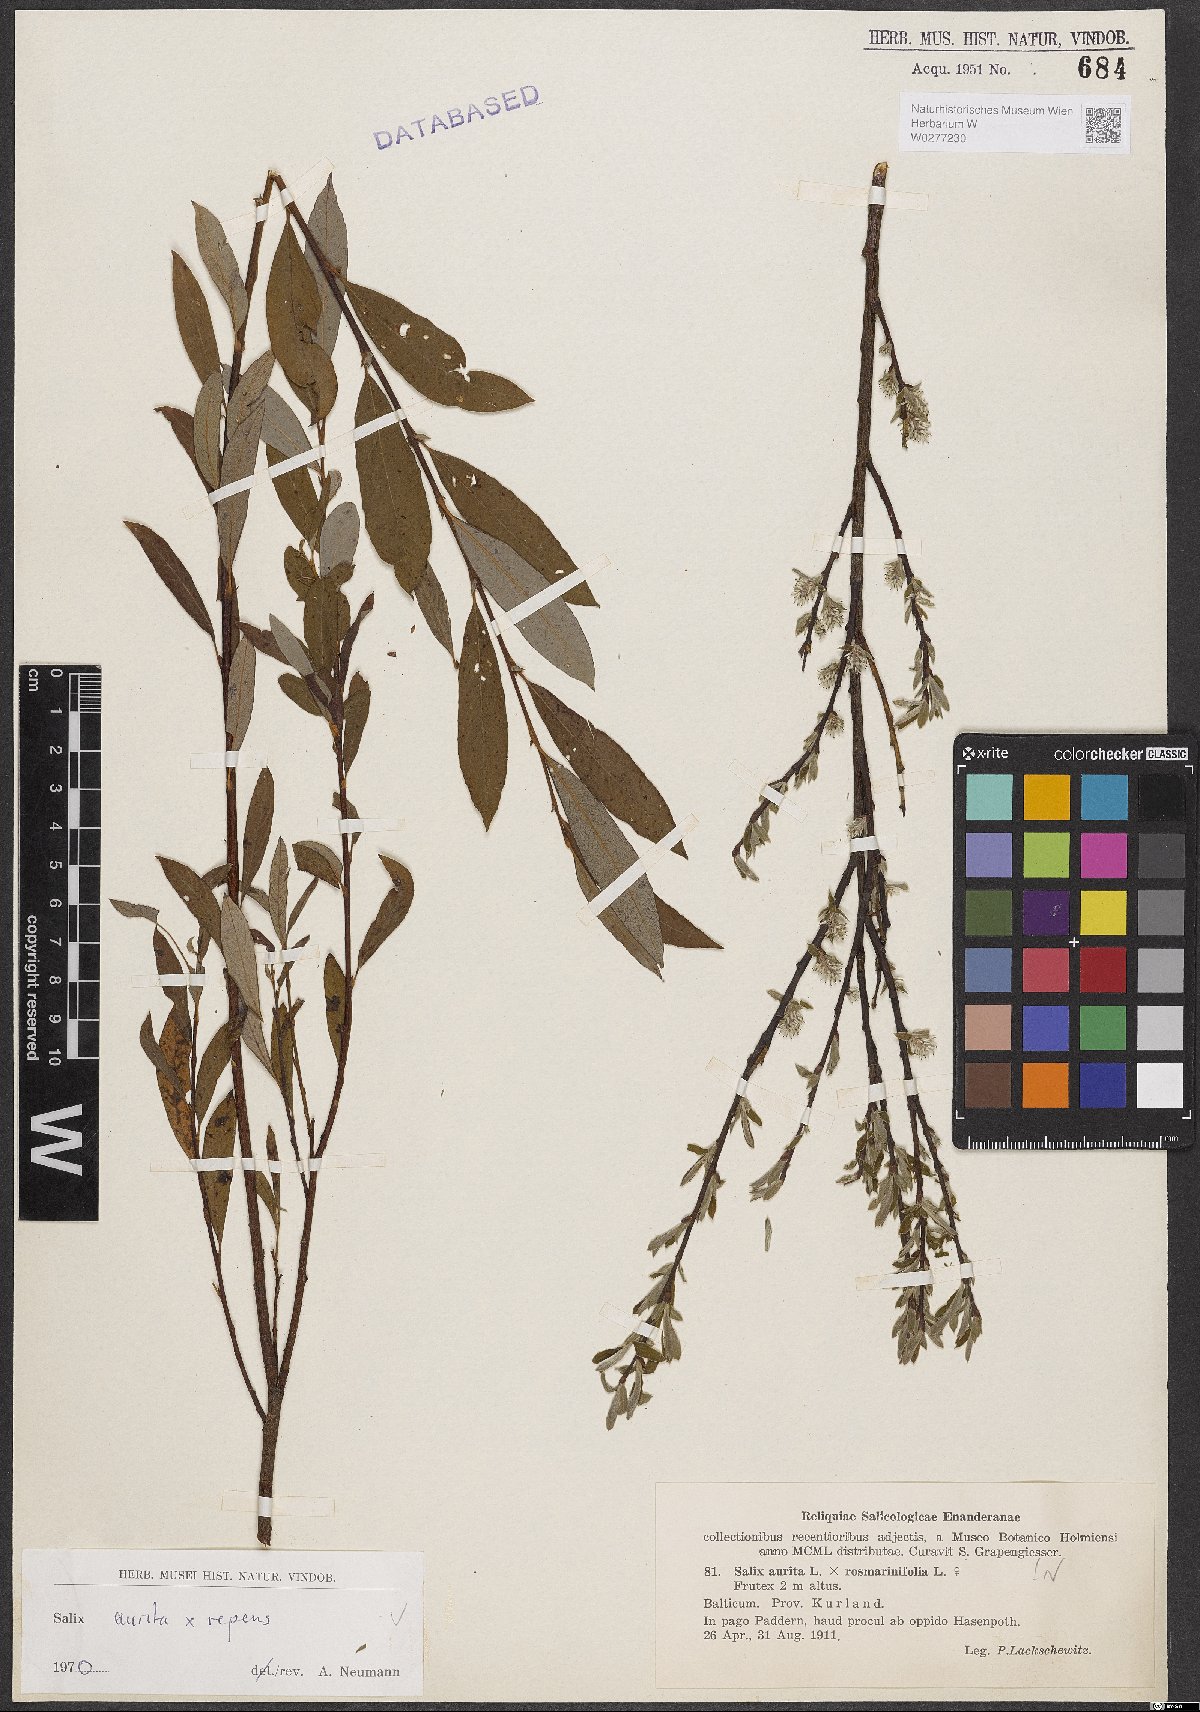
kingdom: Plantae
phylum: Tracheophyta
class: Magnoliopsida
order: Malpighiales
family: Salicaceae
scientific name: Salicaceae
